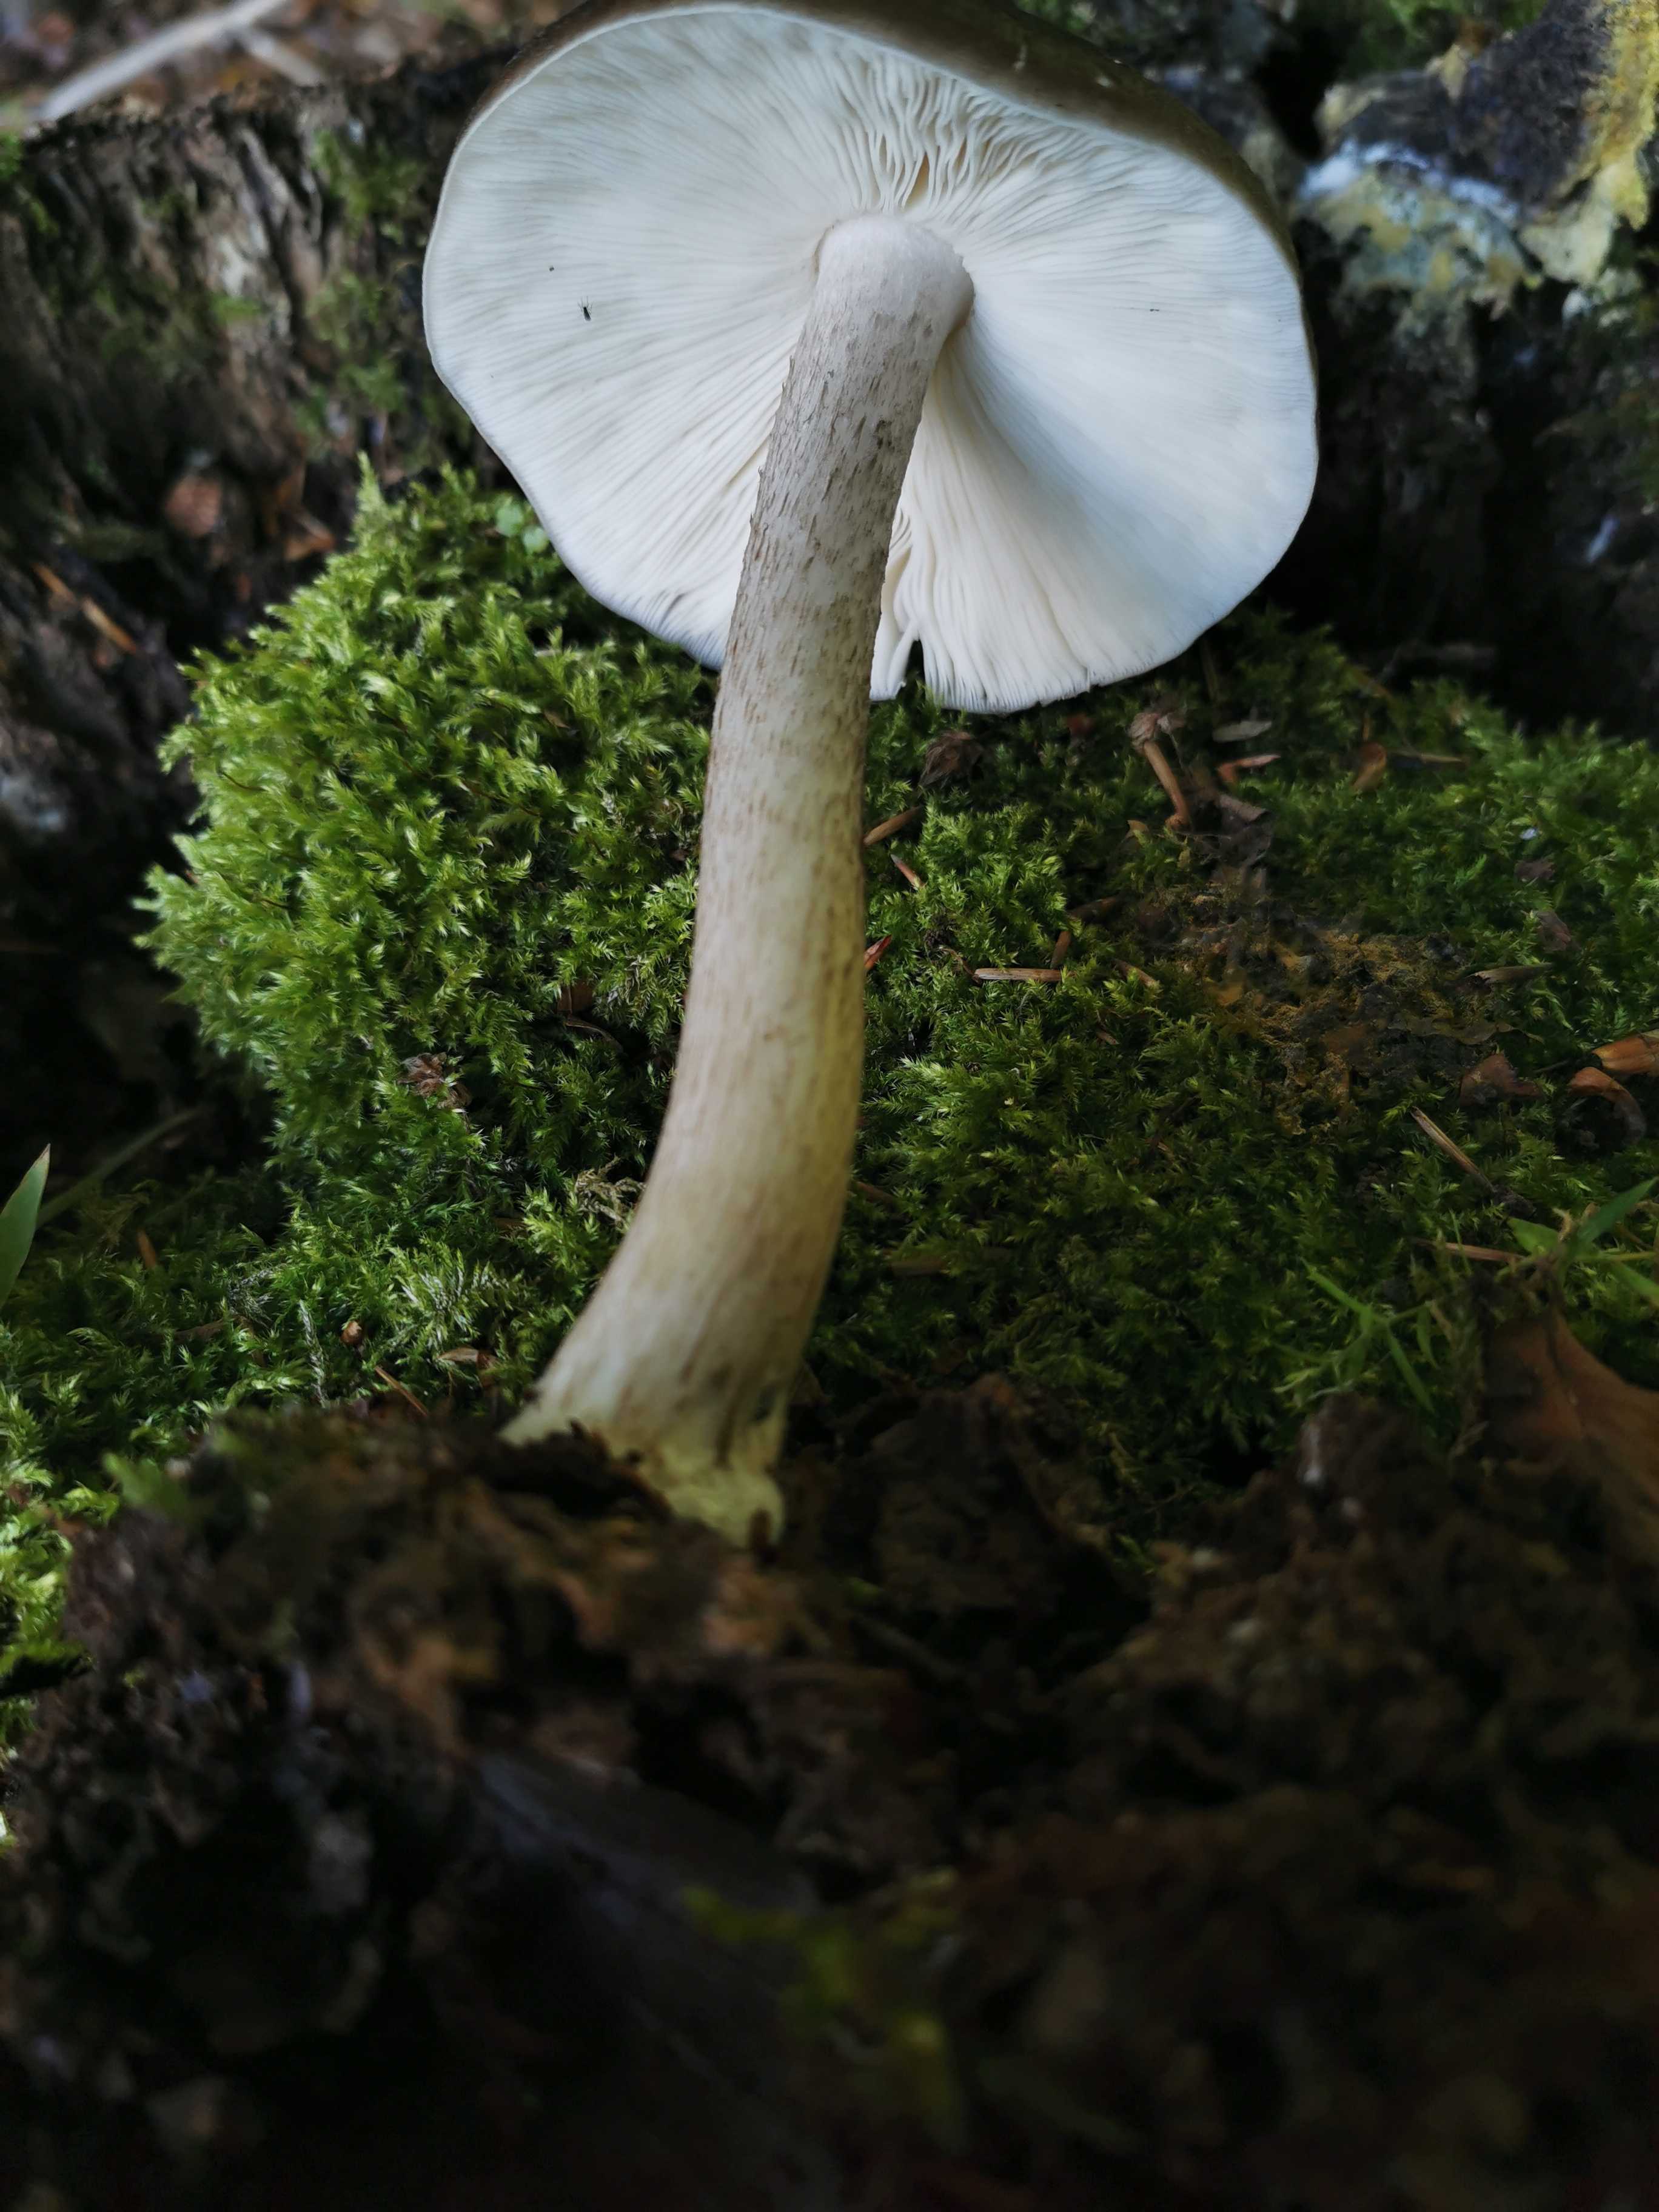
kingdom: Fungi
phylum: Basidiomycota
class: Agaricomycetes
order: Agaricales
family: Pluteaceae
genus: Pluteus
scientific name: Pluteus cervinus
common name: sodfarvet skærmhat
